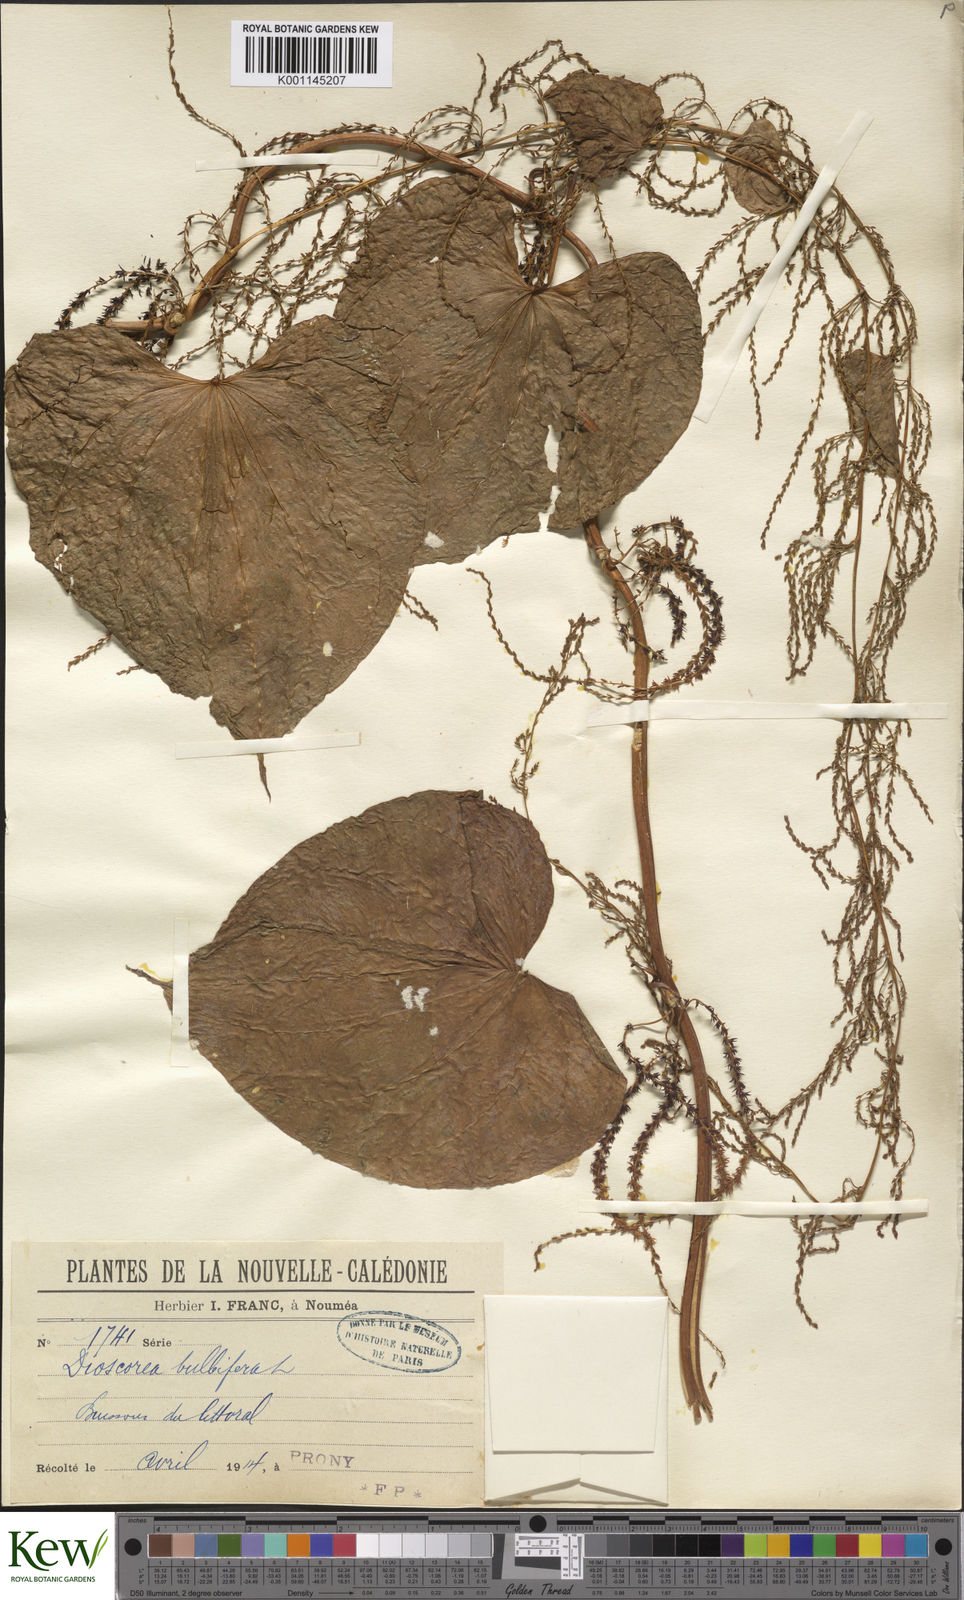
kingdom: Plantae
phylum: Tracheophyta
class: Liliopsida
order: Dioscoreales
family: Dioscoreaceae
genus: Dioscorea
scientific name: Dioscorea bulbifera
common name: Air yam
